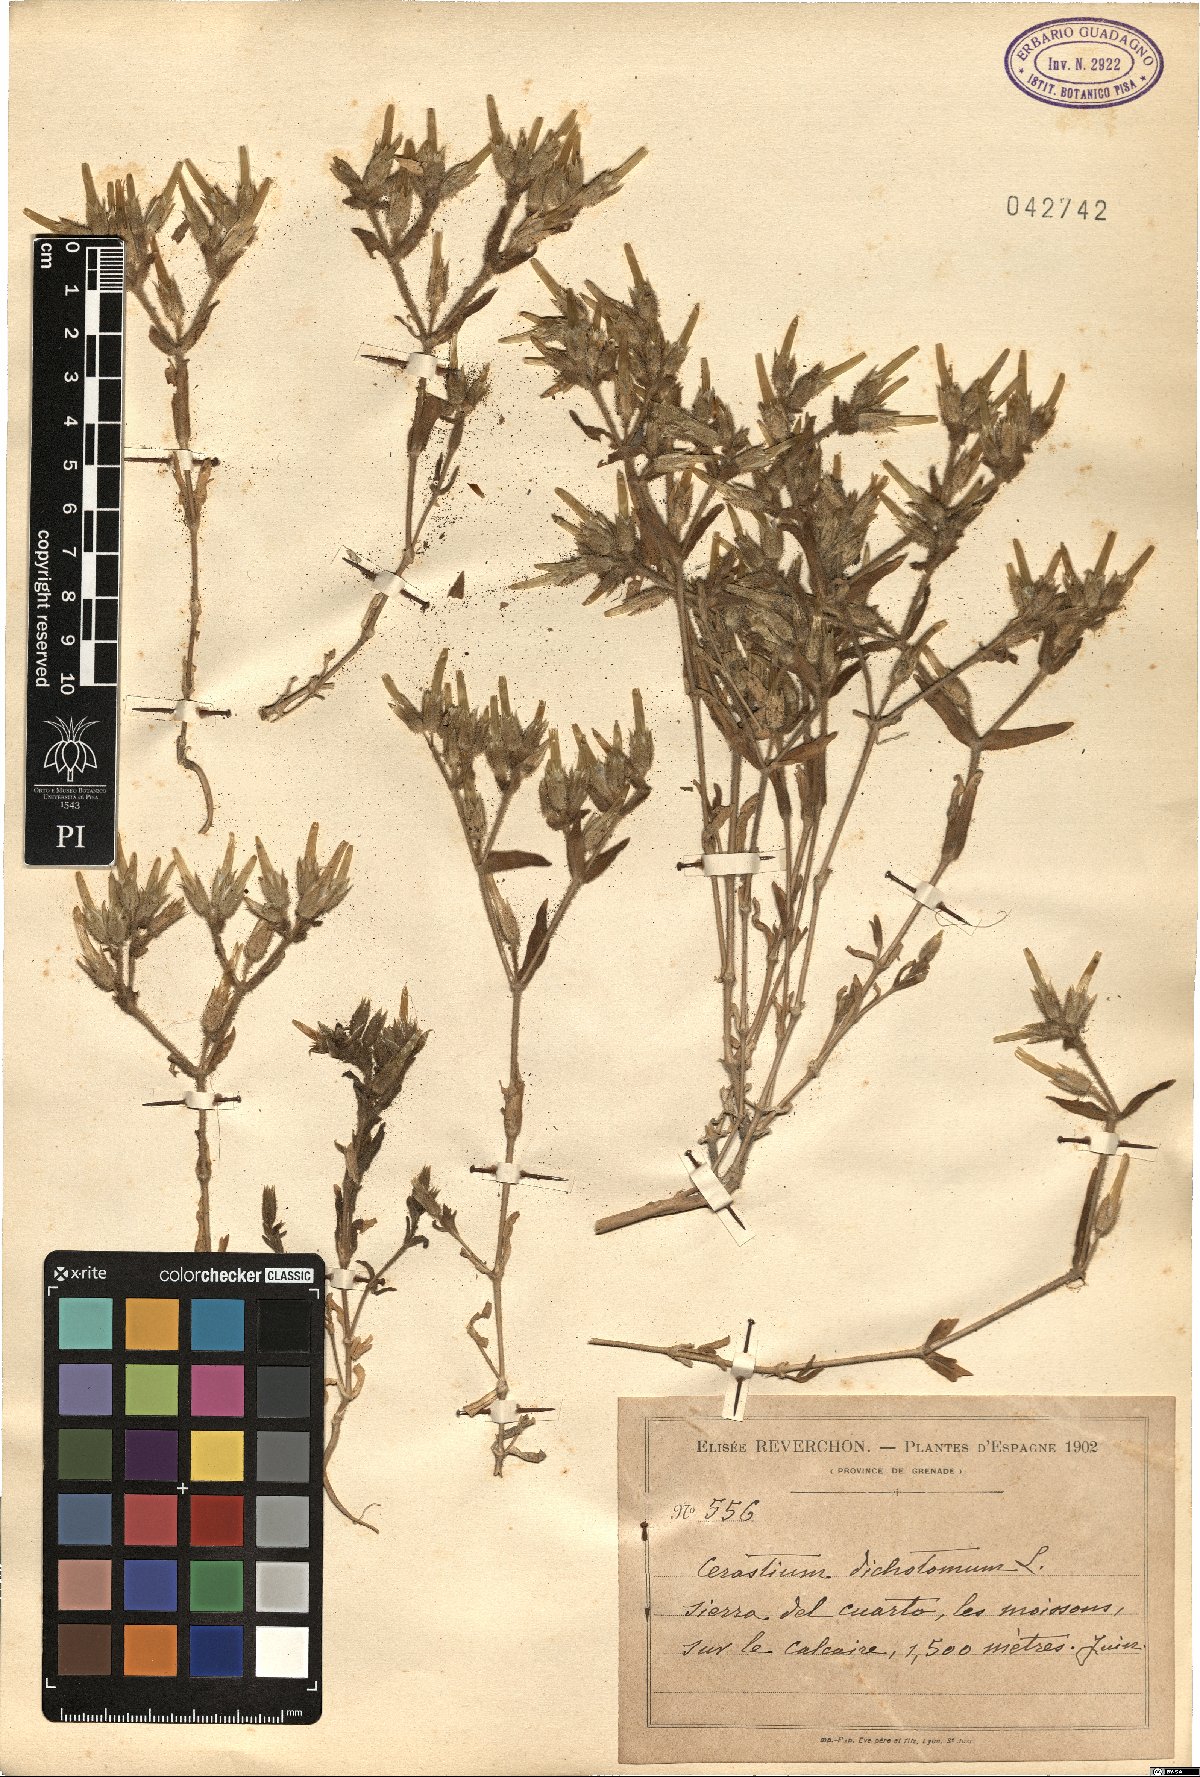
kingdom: Plantae
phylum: Tracheophyta
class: Magnoliopsida
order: Caryophyllales
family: Caryophyllaceae
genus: Cerastium
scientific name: Cerastium dichotomum
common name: Forked chickweed
